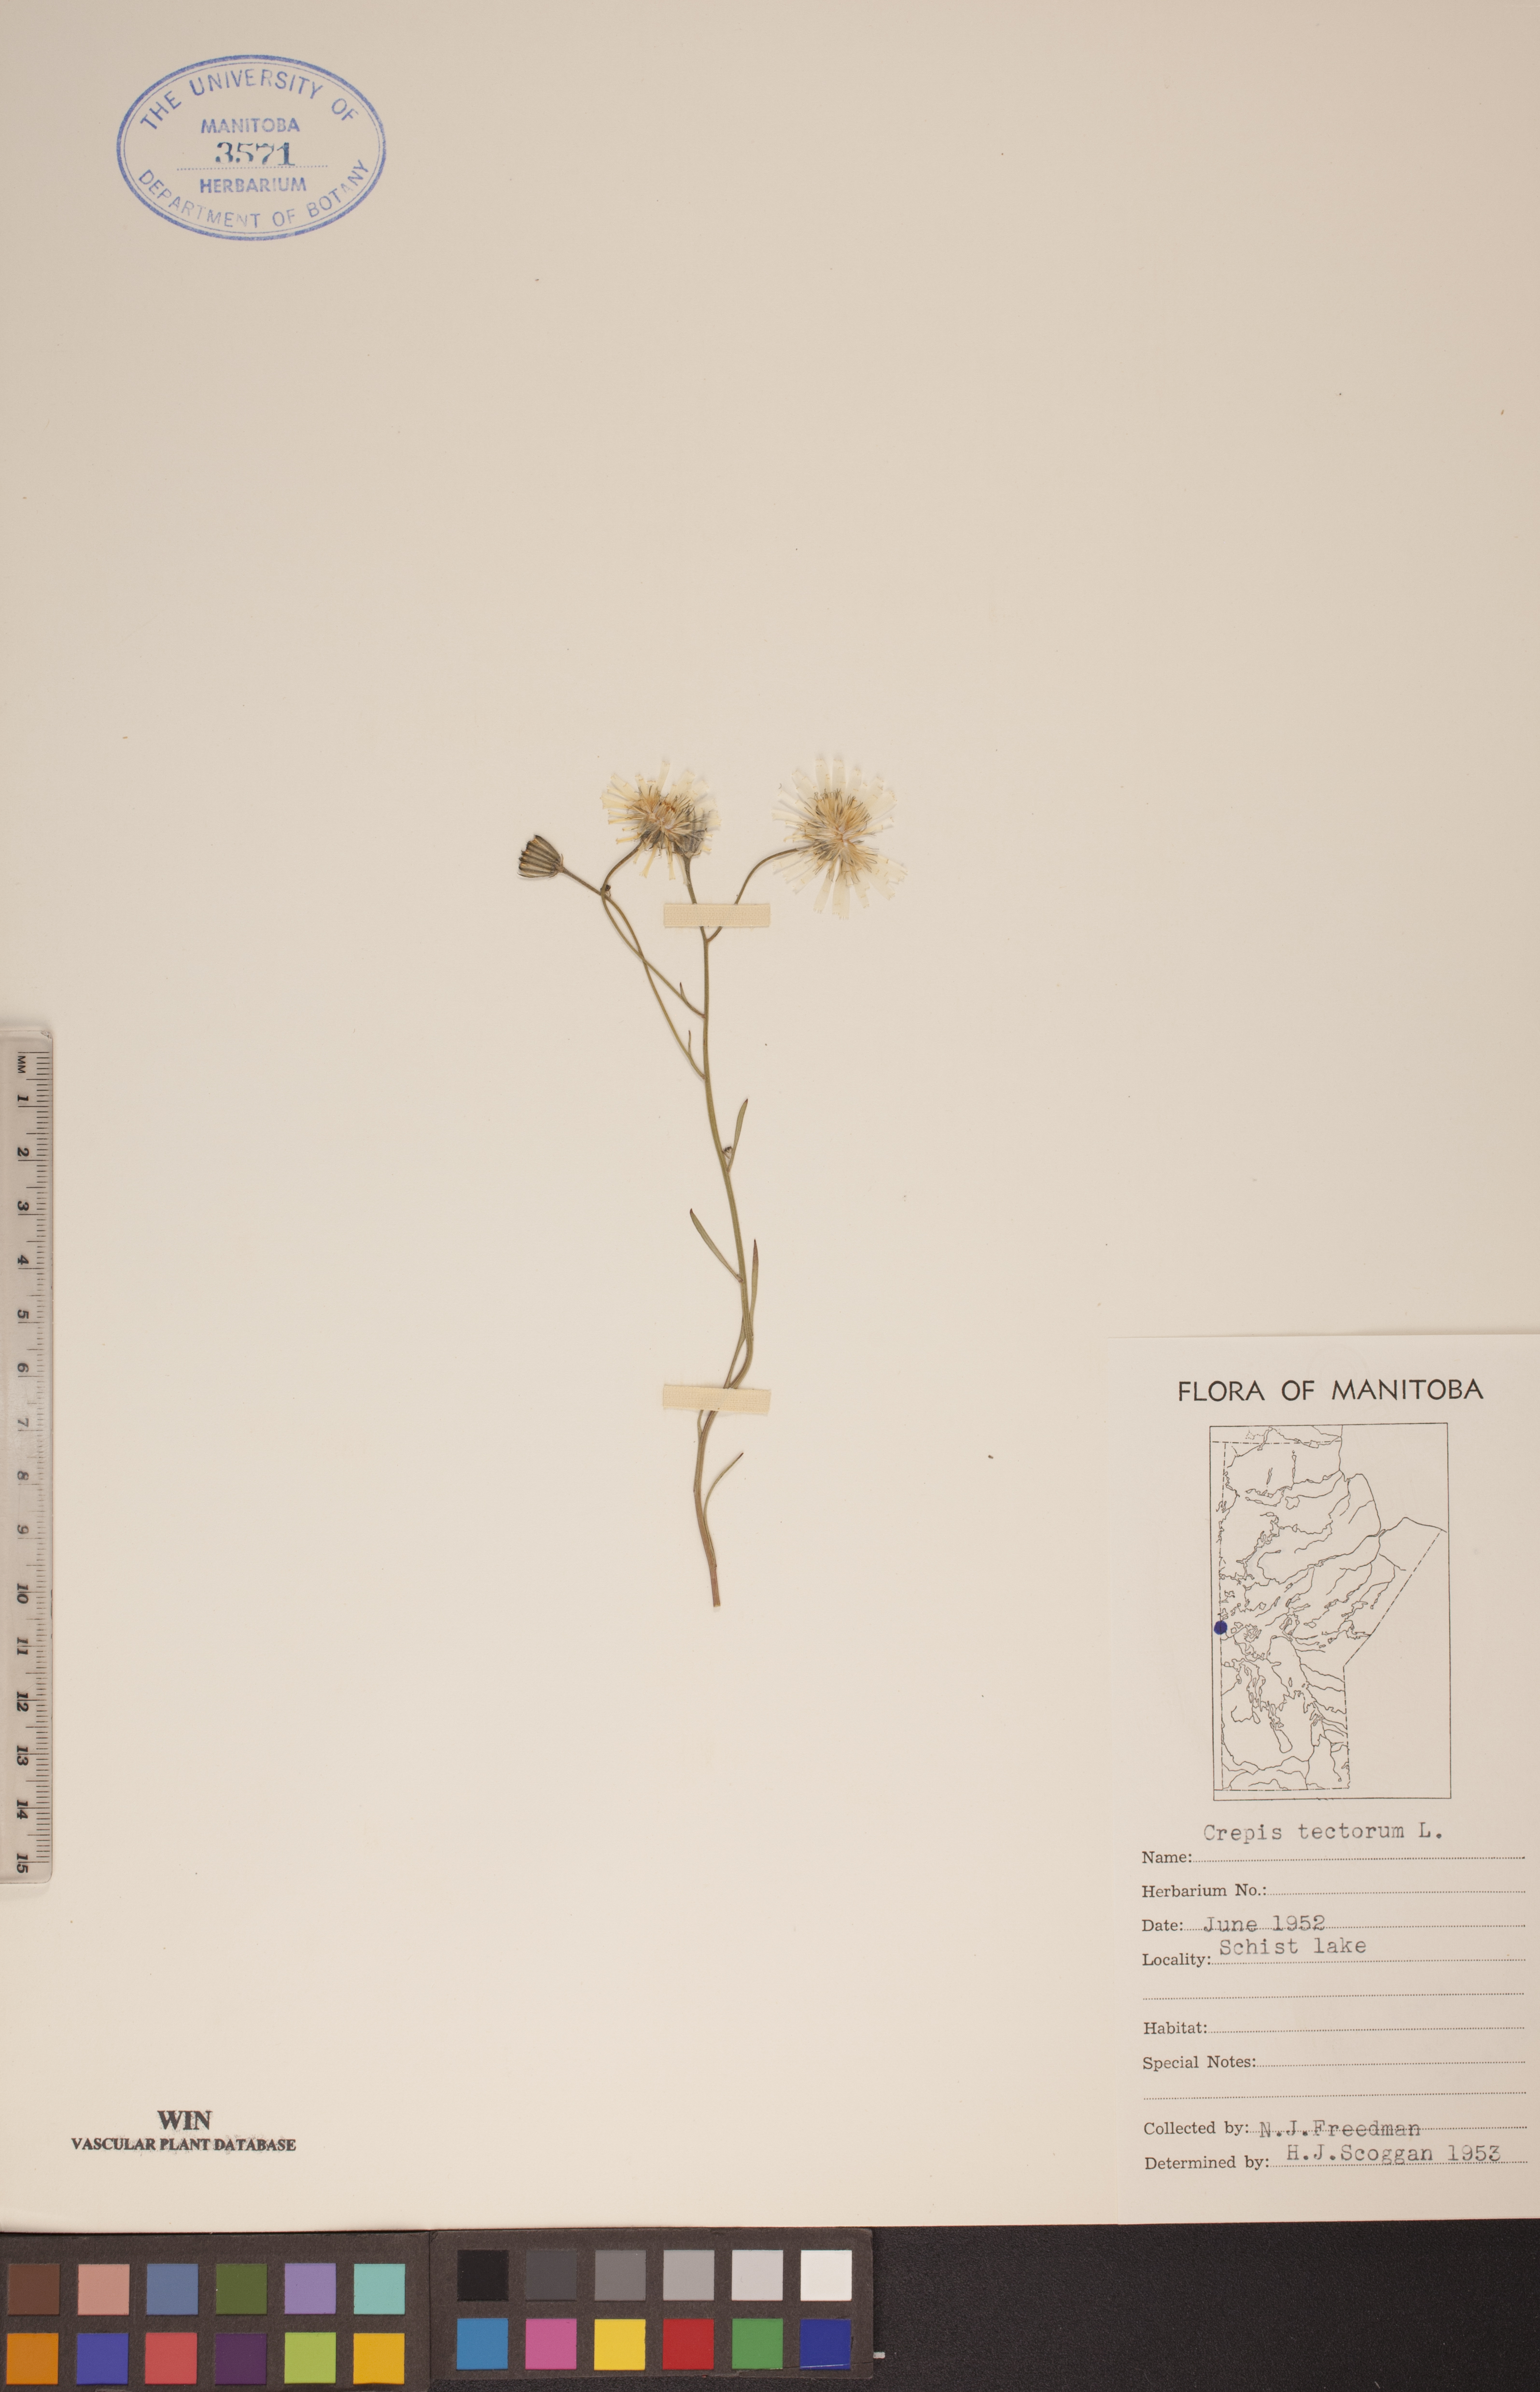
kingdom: Plantae
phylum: Tracheophyta
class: Magnoliopsida
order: Asterales
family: Asteraceae
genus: Crepis
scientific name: Crepis tectorum
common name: Narrow-leaved hawk's-beard
